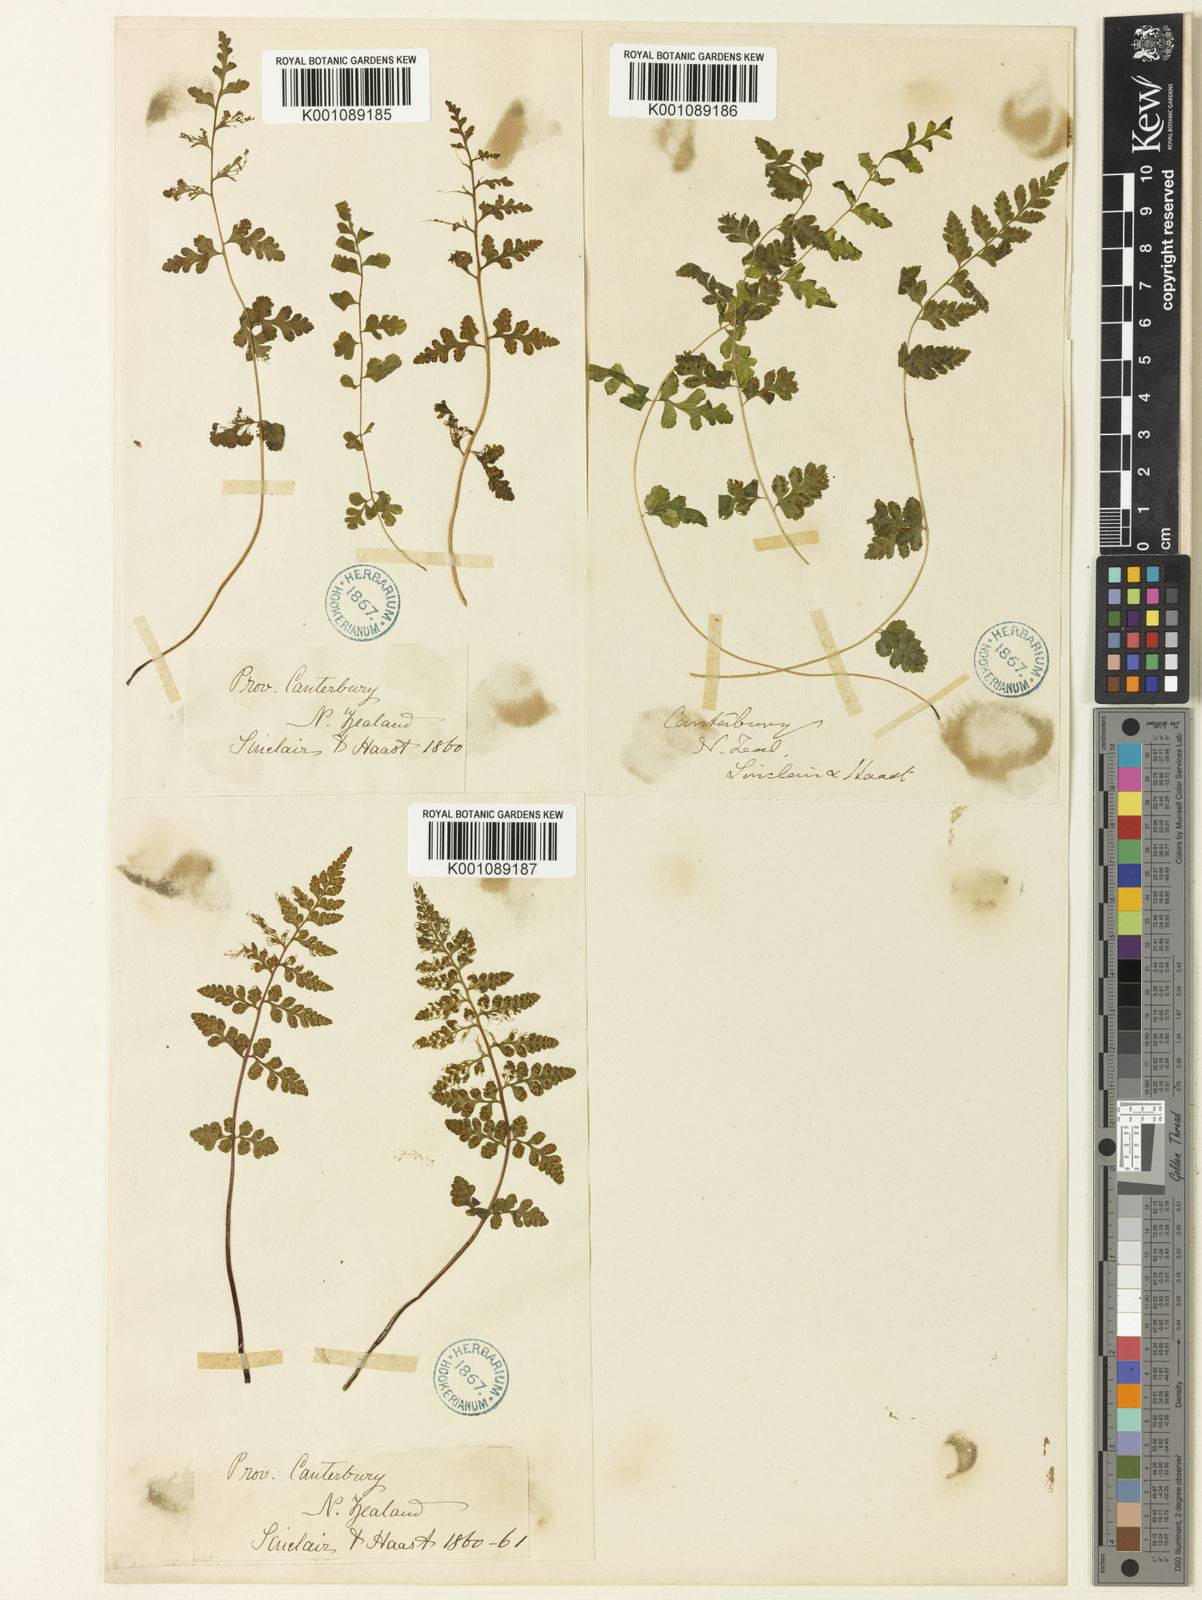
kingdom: Plantae
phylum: Tracheophyta
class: Polypodiopsida
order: Polypodiales
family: Cystopteridaceae
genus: Cystopteris
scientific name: Cystopteris fragilis
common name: Brittle bladder fern
